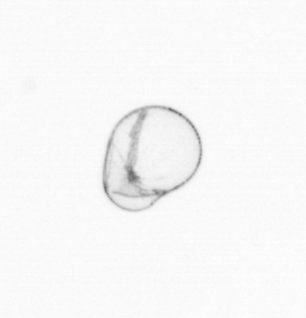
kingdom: Chromista
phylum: Myzozoa
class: Dinophyceae
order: Noctilucales
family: Noctilucaceae
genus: Noctiluca
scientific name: Noctiluca scintillans
